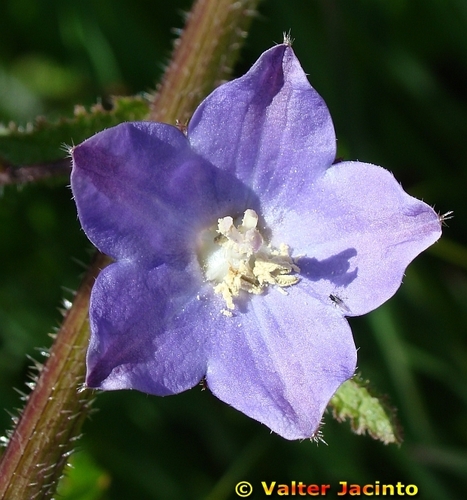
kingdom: Plantae
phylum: Tracheophyta
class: Magnoliopsida
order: Asterales
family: Campanulaceae
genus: Campanula
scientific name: Campanula alata
